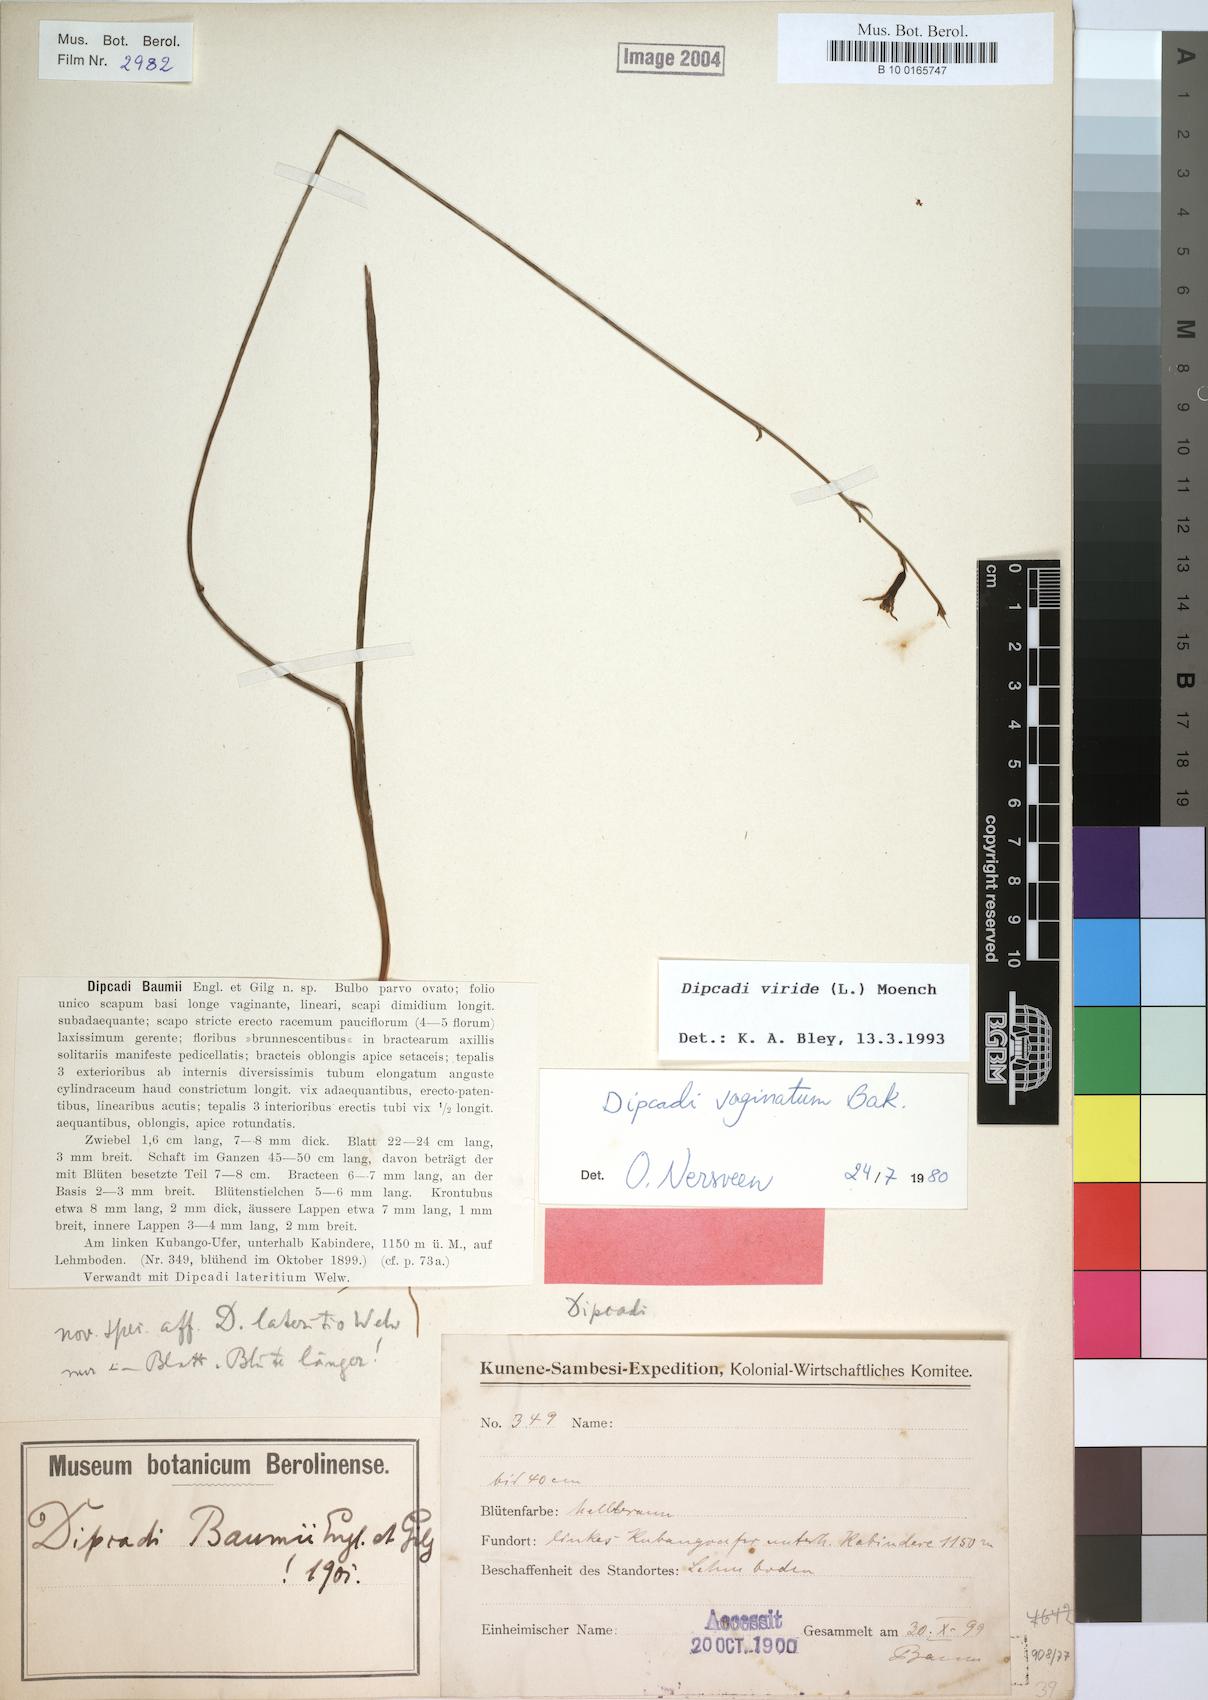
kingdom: Plantae
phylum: Tracheophyta
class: Liliopsida
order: Asparagales
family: Asparagaceae
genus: Dipcadi
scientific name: Dipcadi viride
